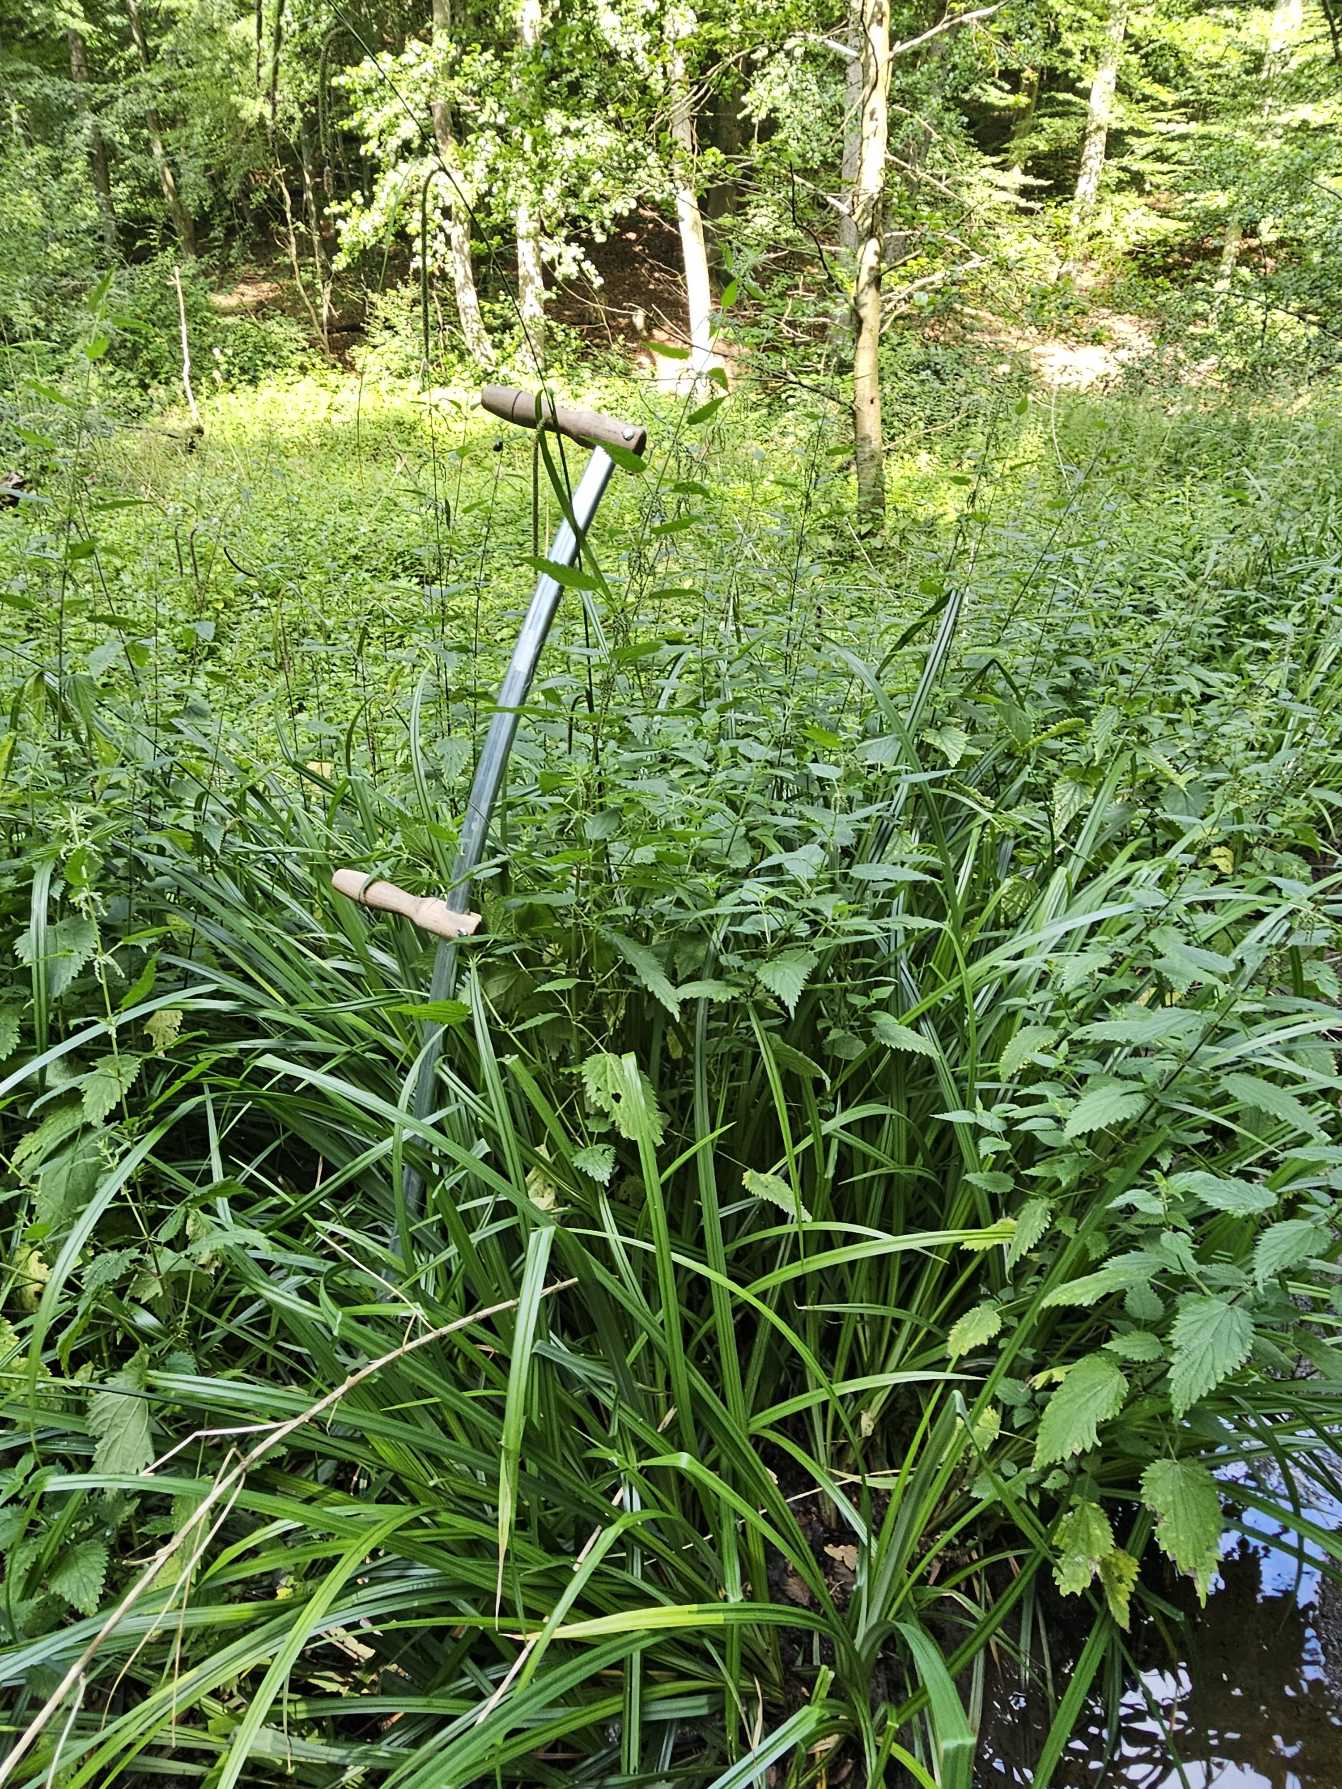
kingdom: Plantae
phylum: Tracheophyta
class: Liliopsida
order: Poales
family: Cyperaceae
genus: Carex
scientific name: Carex pendula
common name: Kæmpe-star
